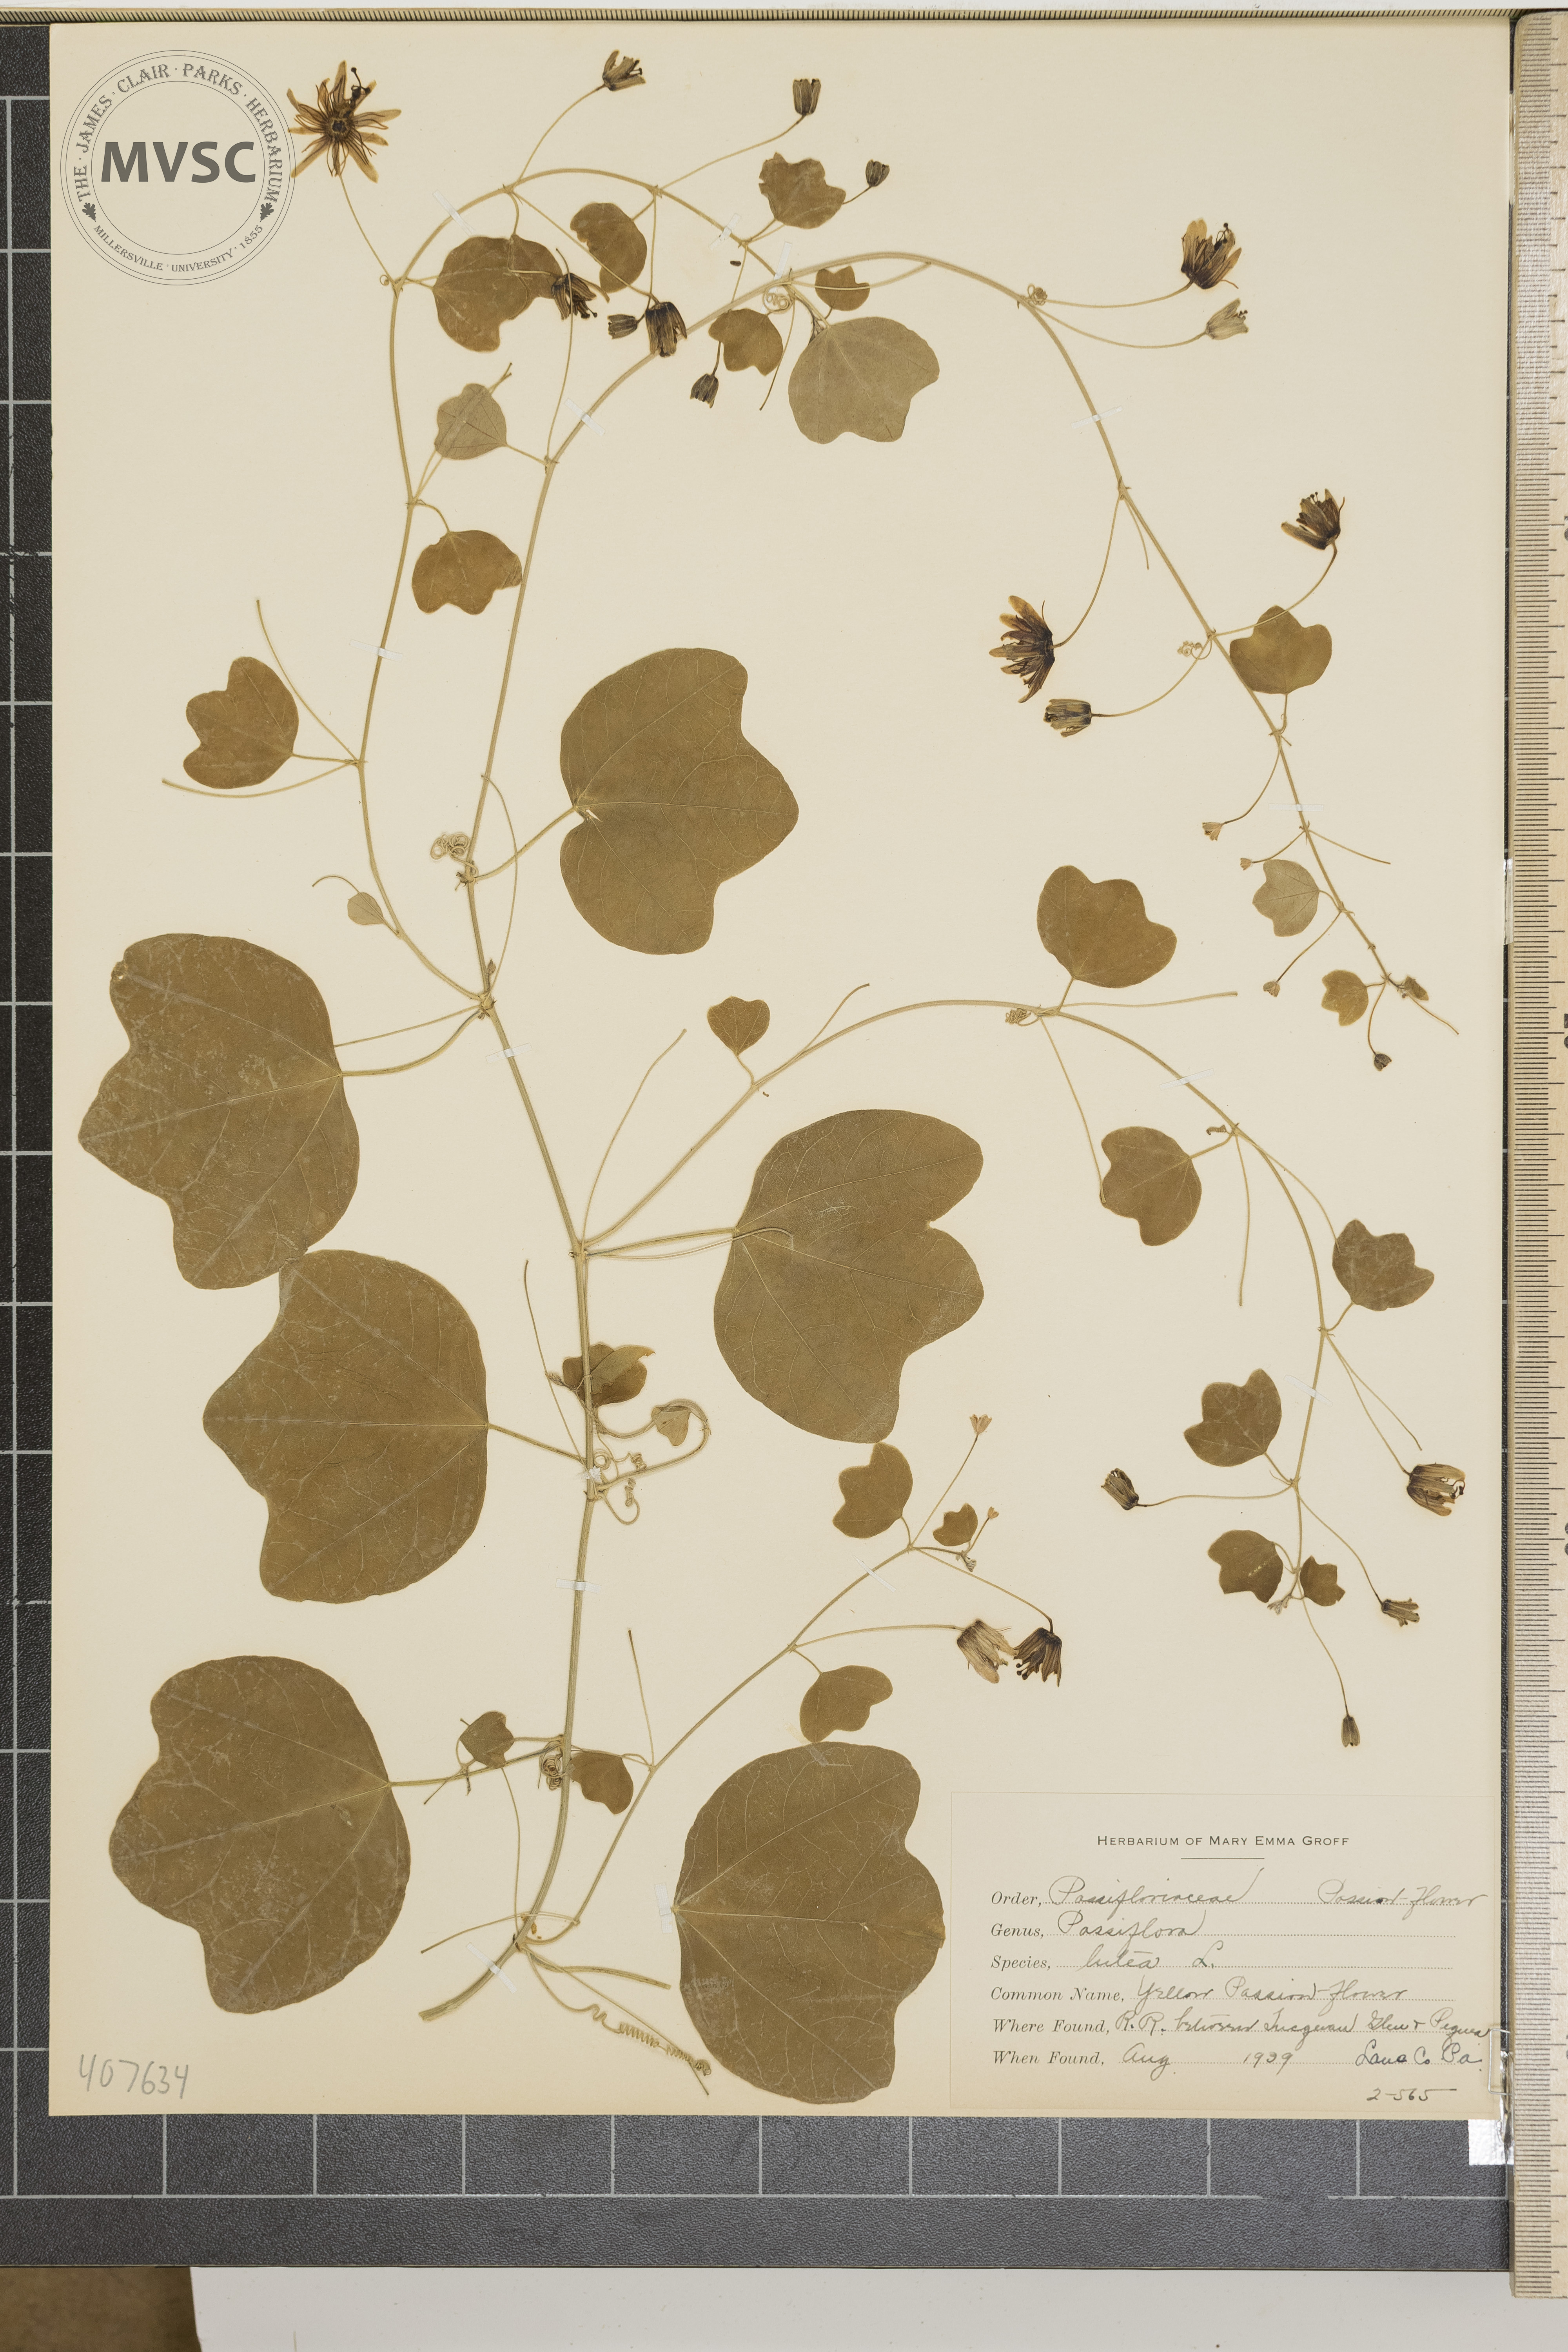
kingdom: Plantae
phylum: Tracheophyta
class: Magnoliopsida
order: Malpighiales
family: Passifloraceae
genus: Passiflora
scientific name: Passiflora lutea
